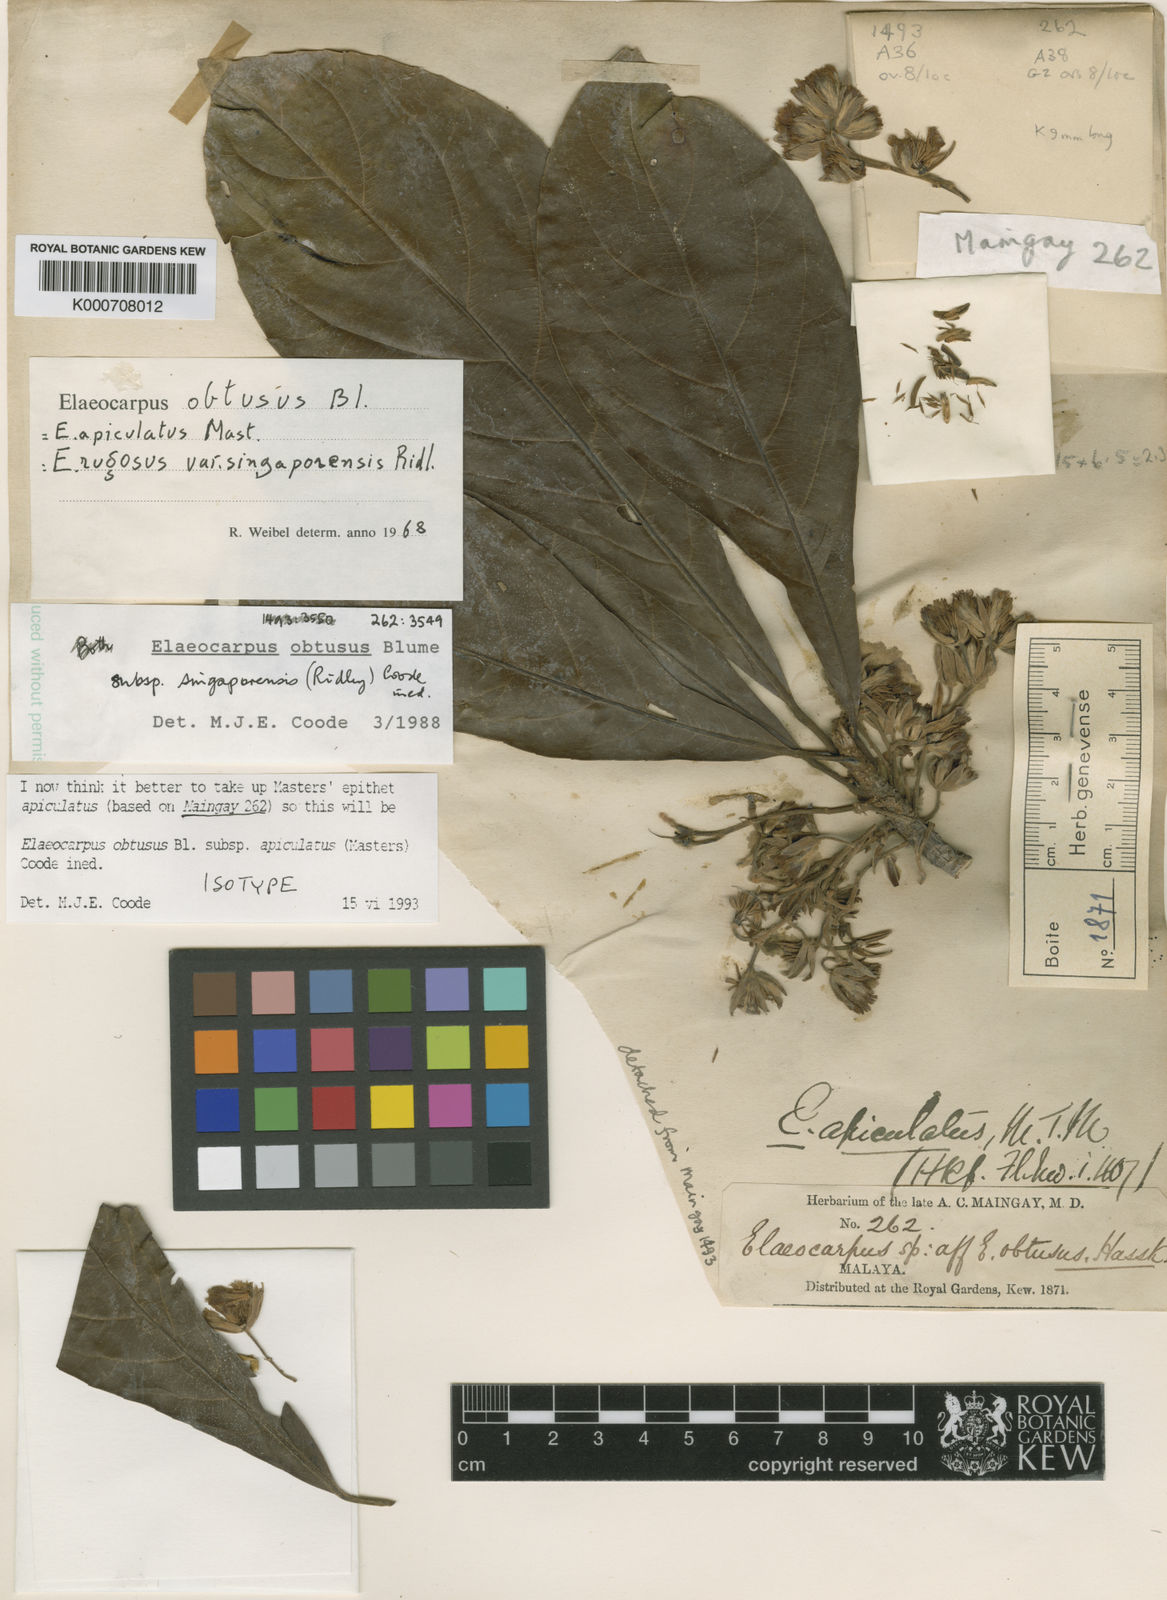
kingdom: Plantae
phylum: Tracheophyta
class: Magnoliopsida
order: Oxalidales
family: Elaeocarpaceae
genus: Elaeocarpus
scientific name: Elaeocarpus obtusus
